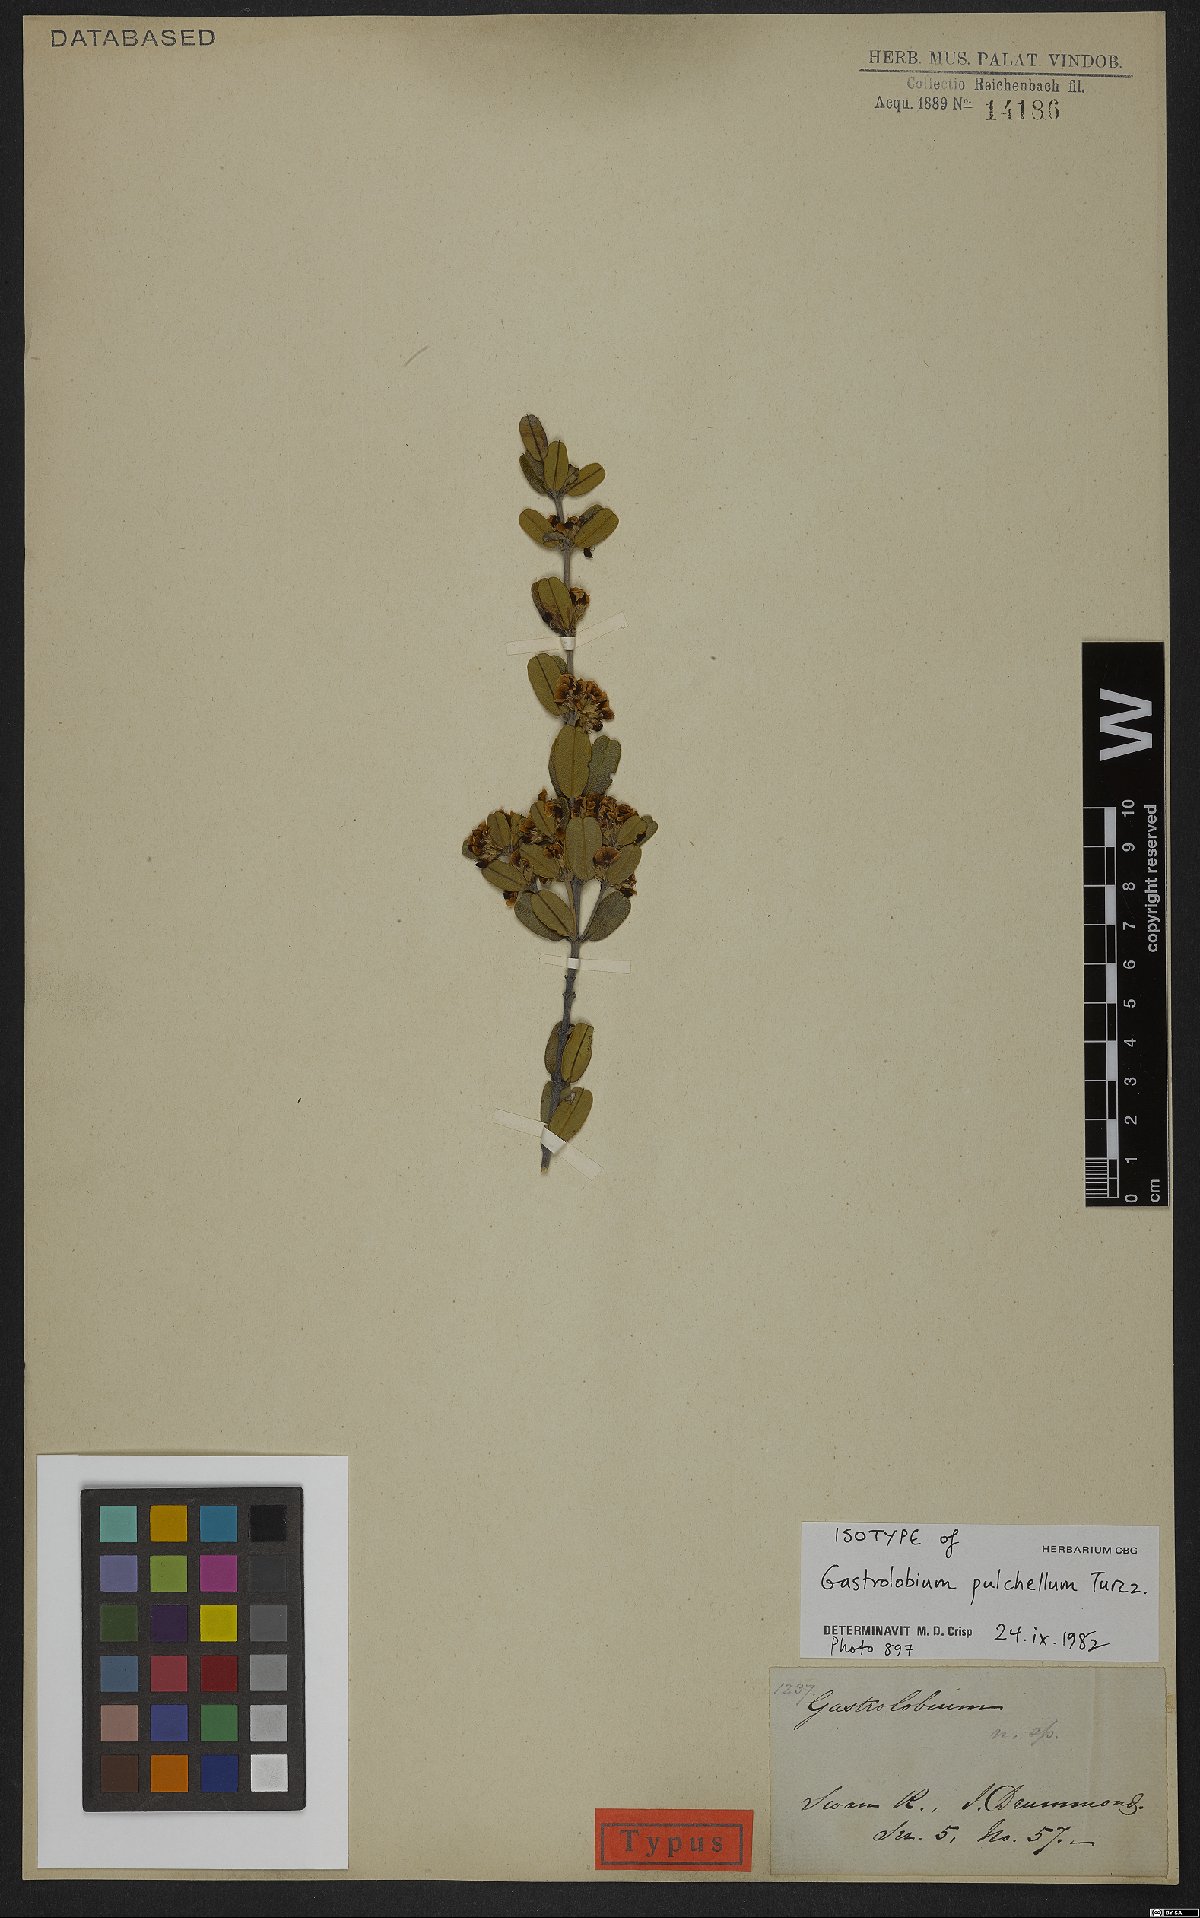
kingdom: Plantae
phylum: Tracheophyta
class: Magnoliopsida
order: Fabales
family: Fabaceae
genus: Gastrolobium
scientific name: Gastrolobium pulchellum
